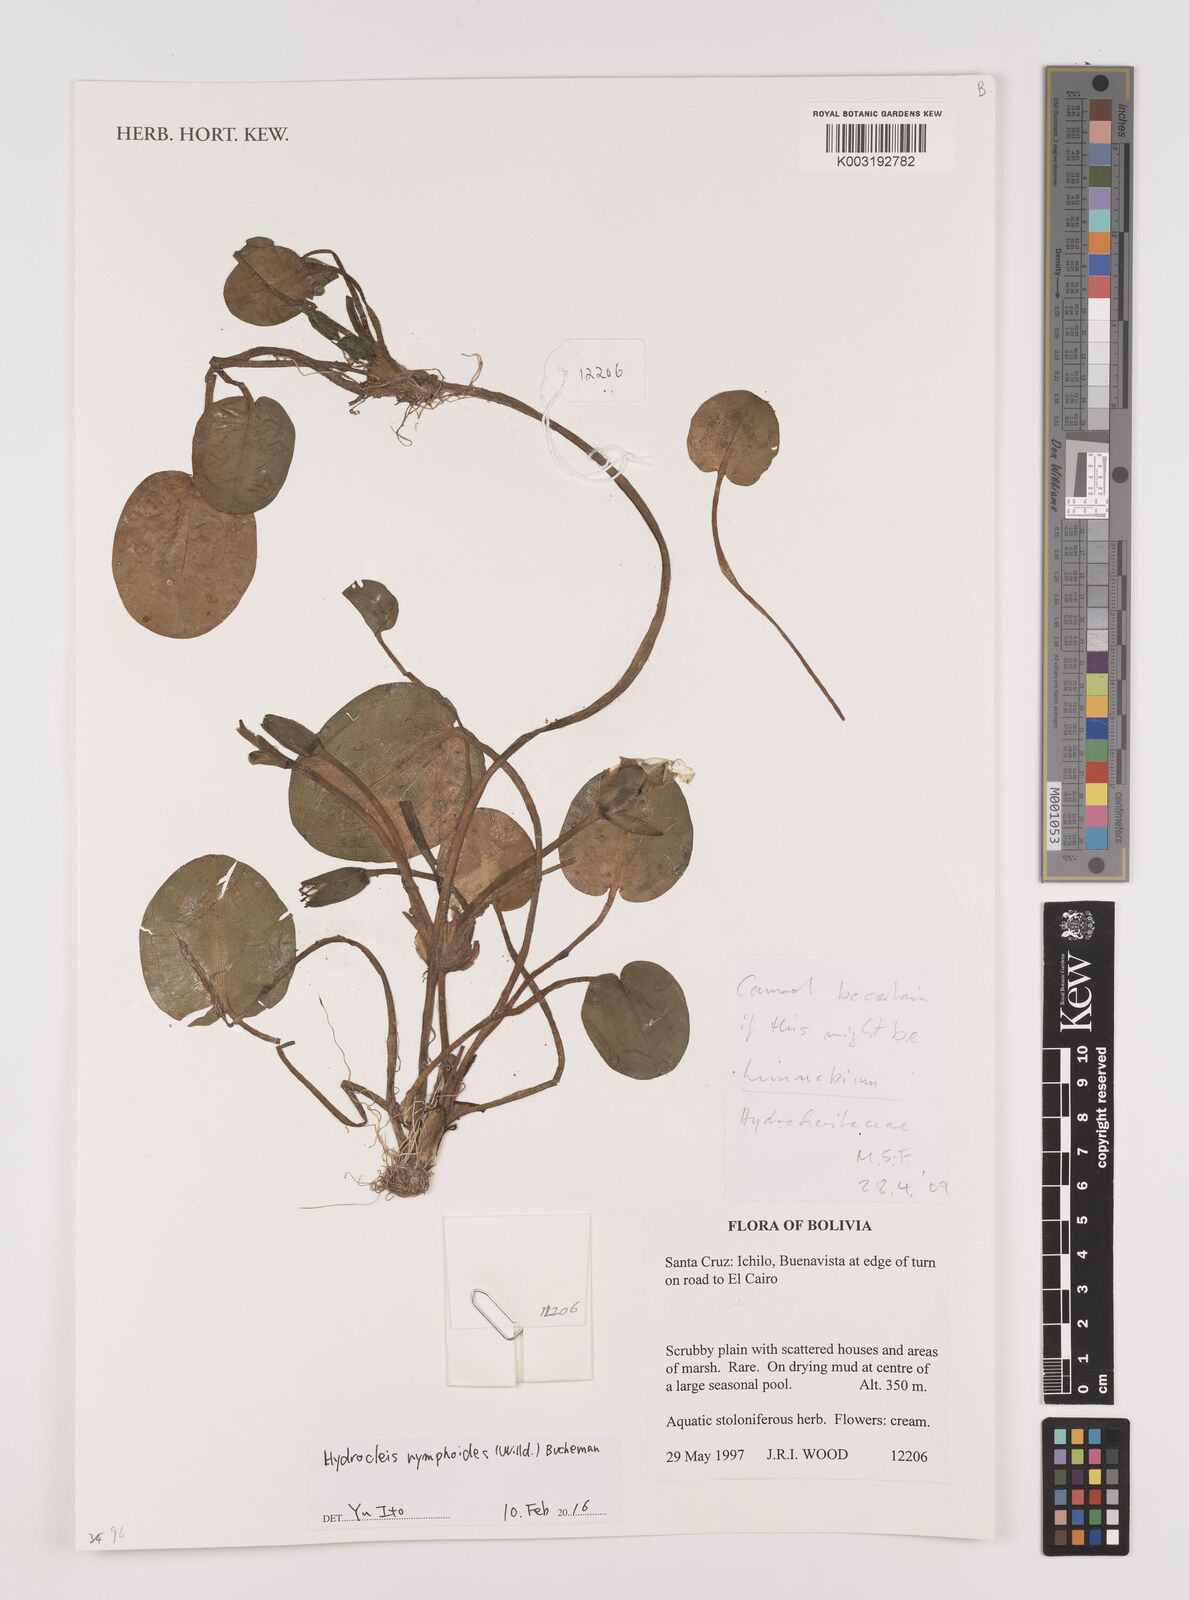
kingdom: Plantae
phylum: Tracheophyta
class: Liliopsida
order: Alismatales
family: Alismataceae
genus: Hydrocleys
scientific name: Hydrocleys nymphoides
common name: Water-poppy
